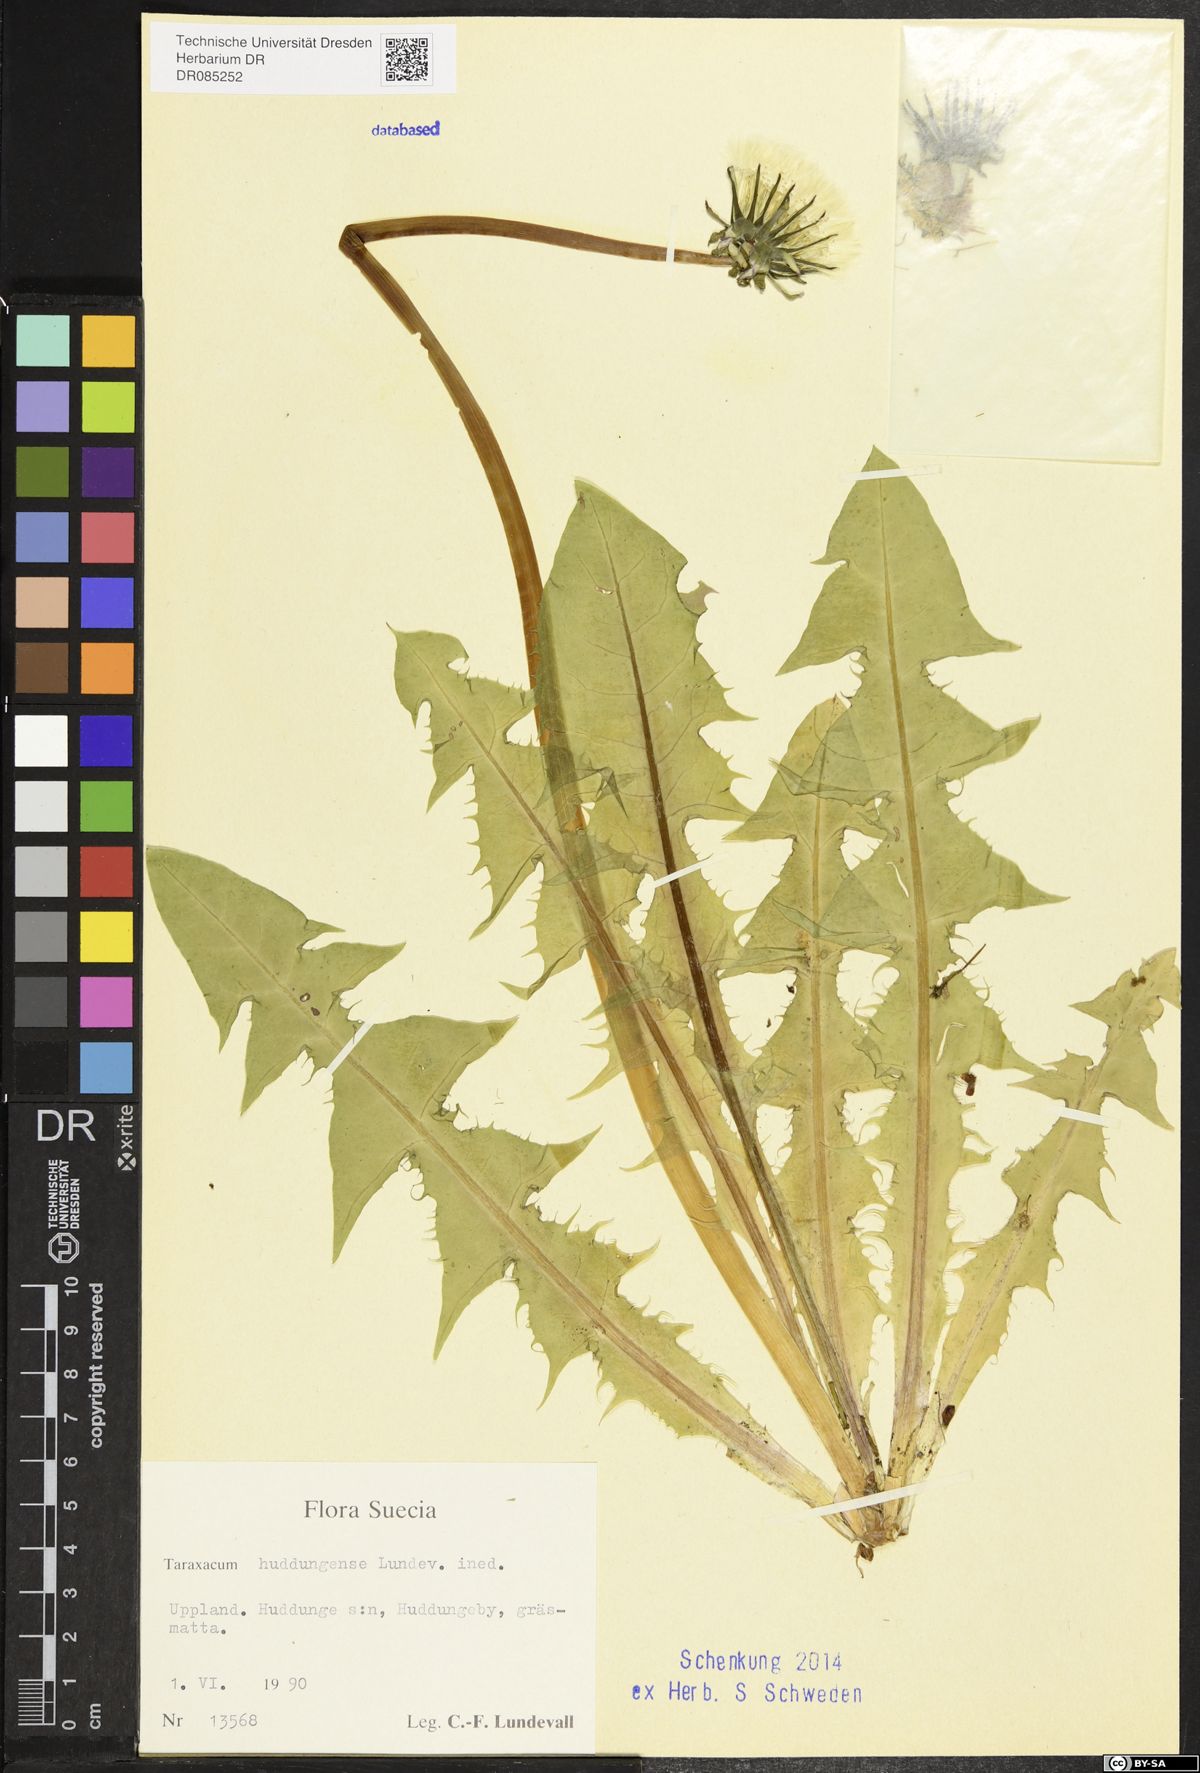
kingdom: Plantae
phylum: Tracheophyta
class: Magnoliopsida
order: Asterales
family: Asteraceae
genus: Taraxacum
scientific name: Taraxacum huddungense
